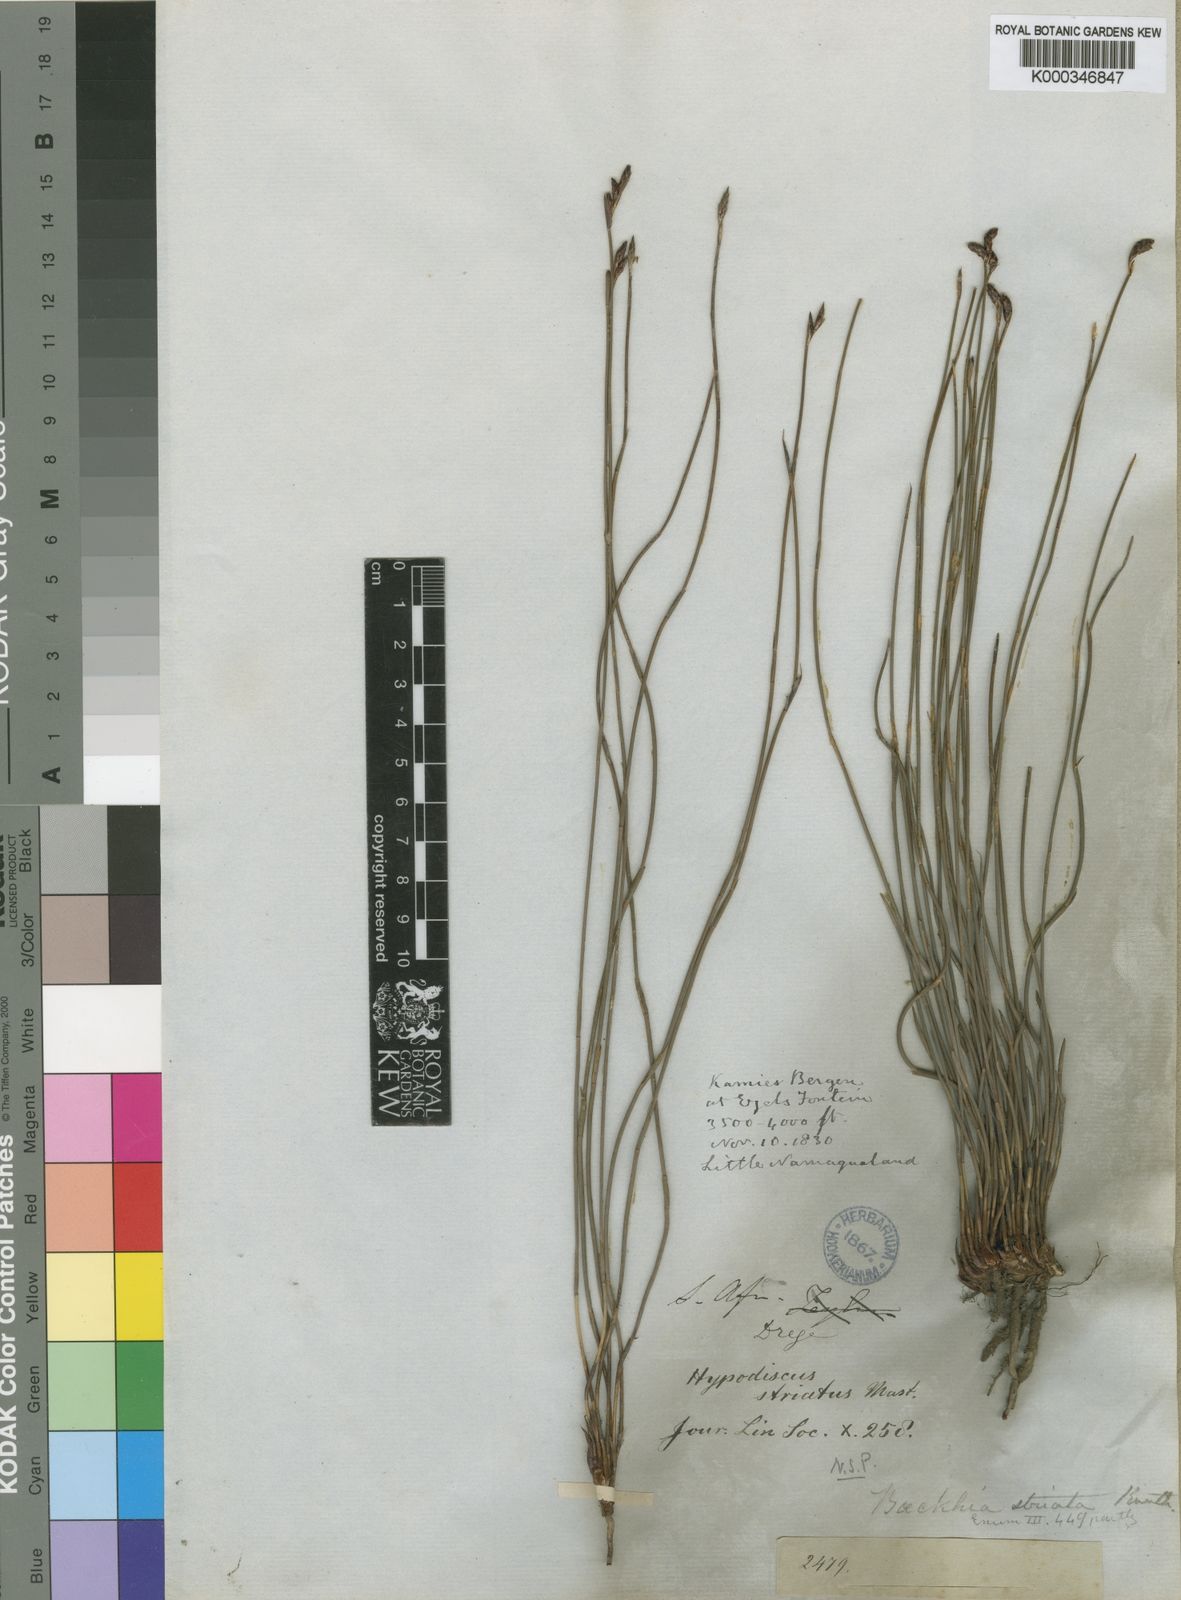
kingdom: Plantae
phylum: Tracheophyta
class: Liliopsida
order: Poales
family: Restionaceae
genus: Hypodiscus
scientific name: Hypodiscus striatus
